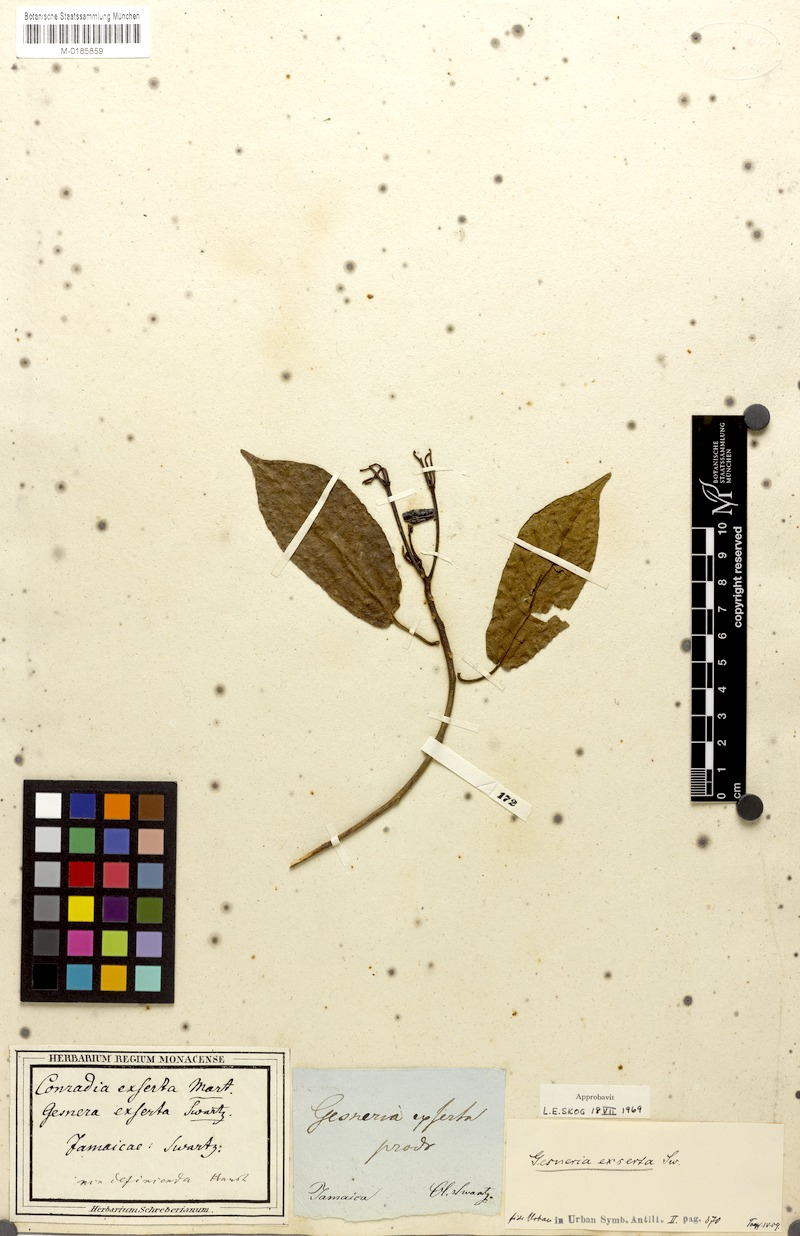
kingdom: Plantae
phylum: Tracheophyta
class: Magnoliopsida
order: Lamiales
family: Gesneriaceae
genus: Gesneria
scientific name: Gesneria exserta
